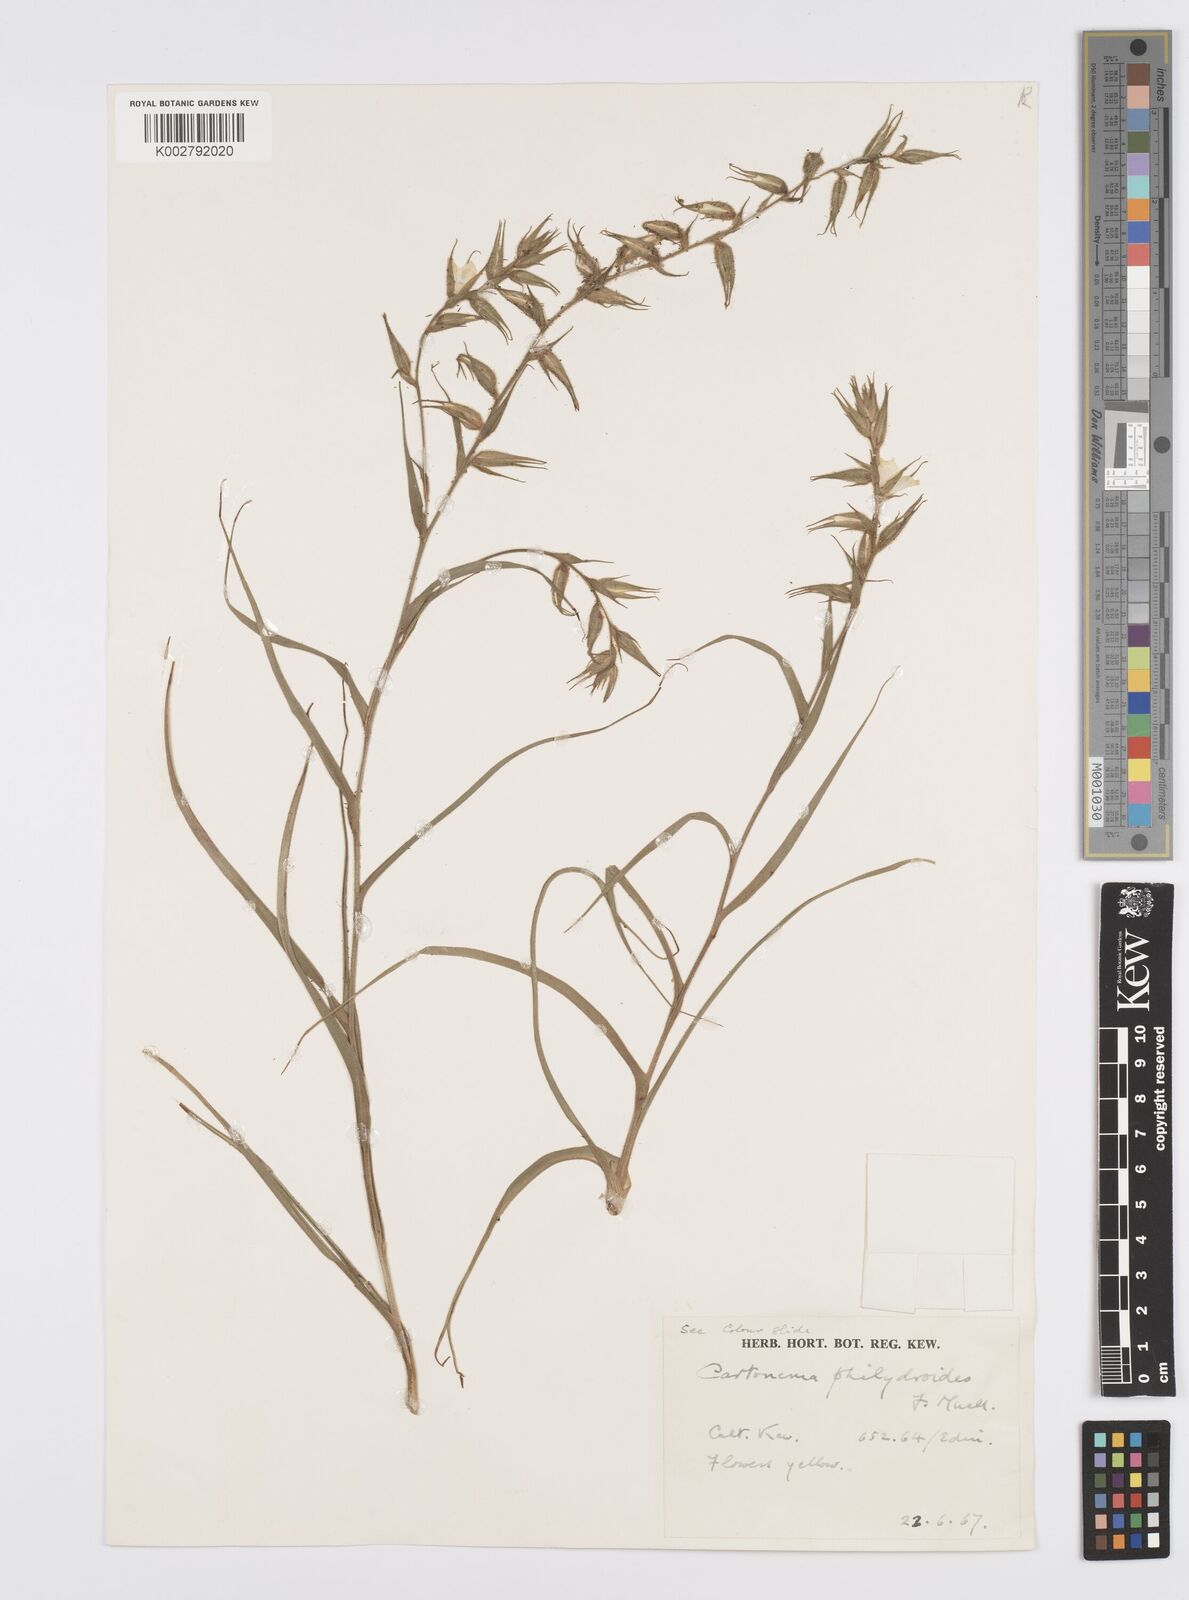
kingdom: Plantae
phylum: Tracheophyta
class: Liliopsida
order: Commelinales
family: Commelinaceae
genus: Cartonema
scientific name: Cartonema philydroides
